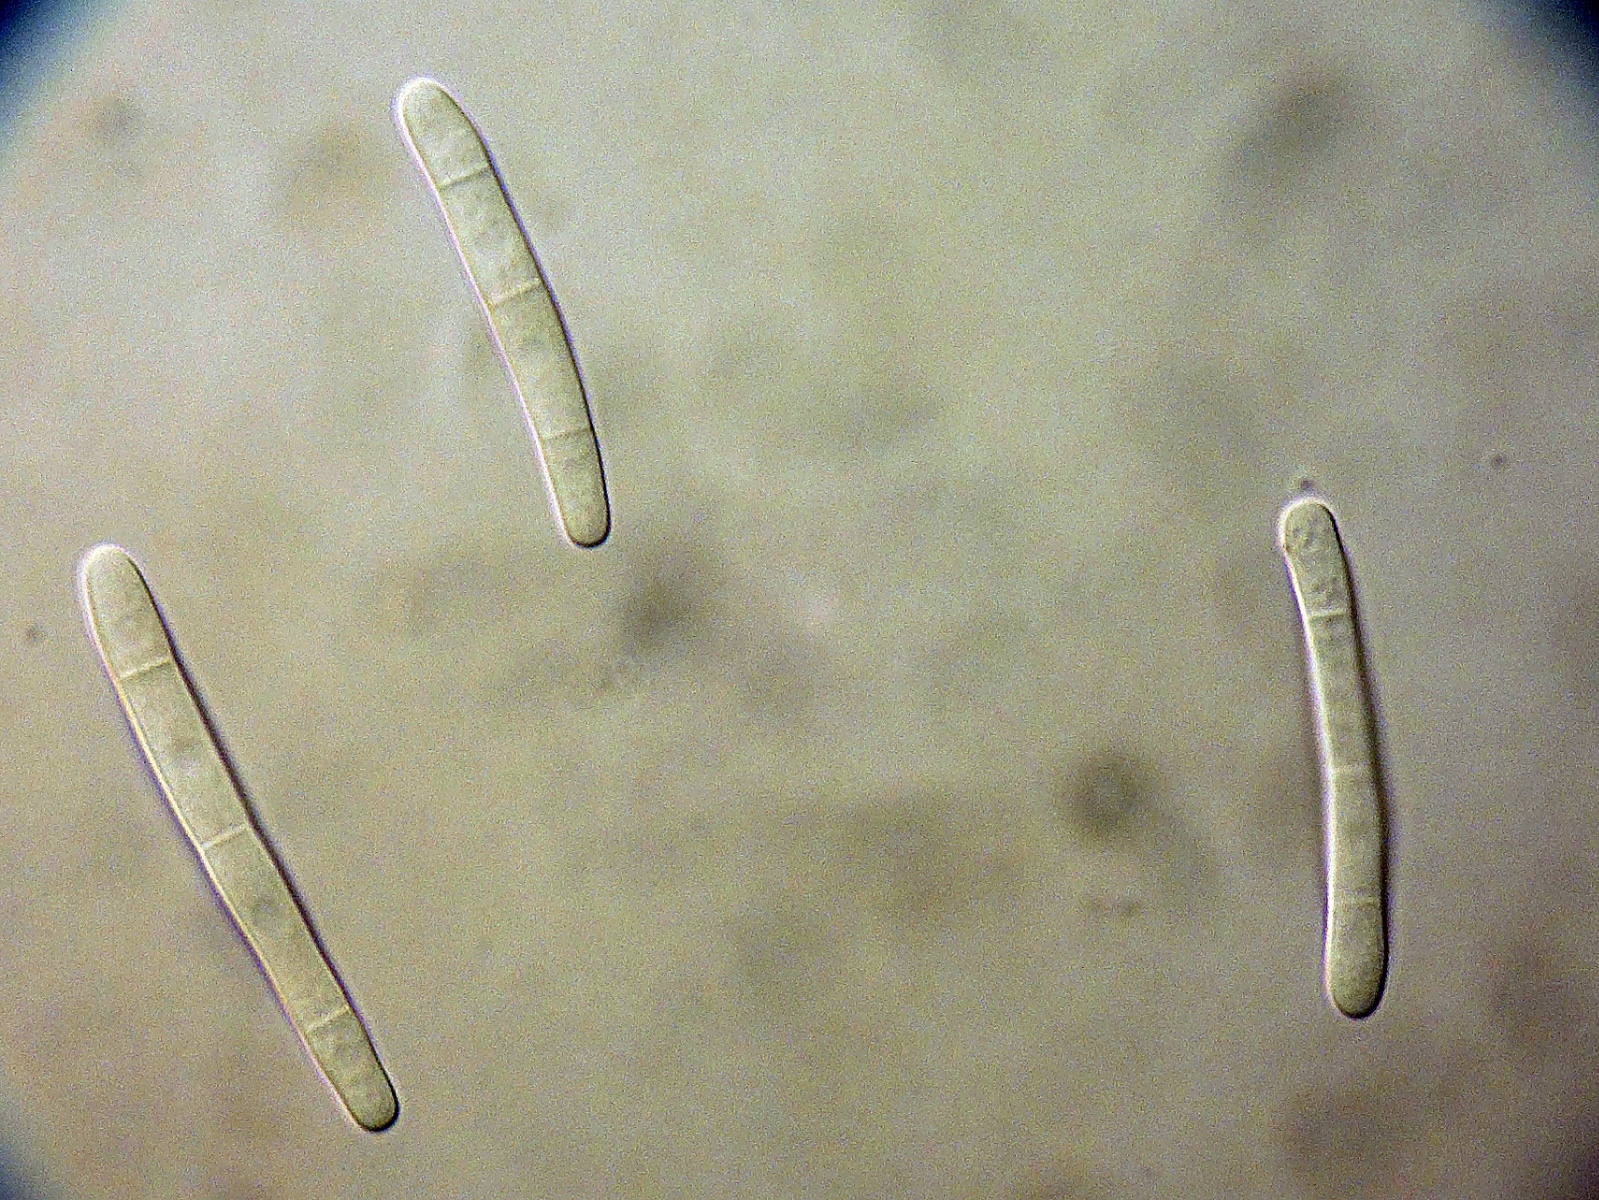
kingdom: Fungi
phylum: Ascomycota
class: Sordariomycetes
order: Hypocreales
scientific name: Hypocreales
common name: kødkerneordenen
